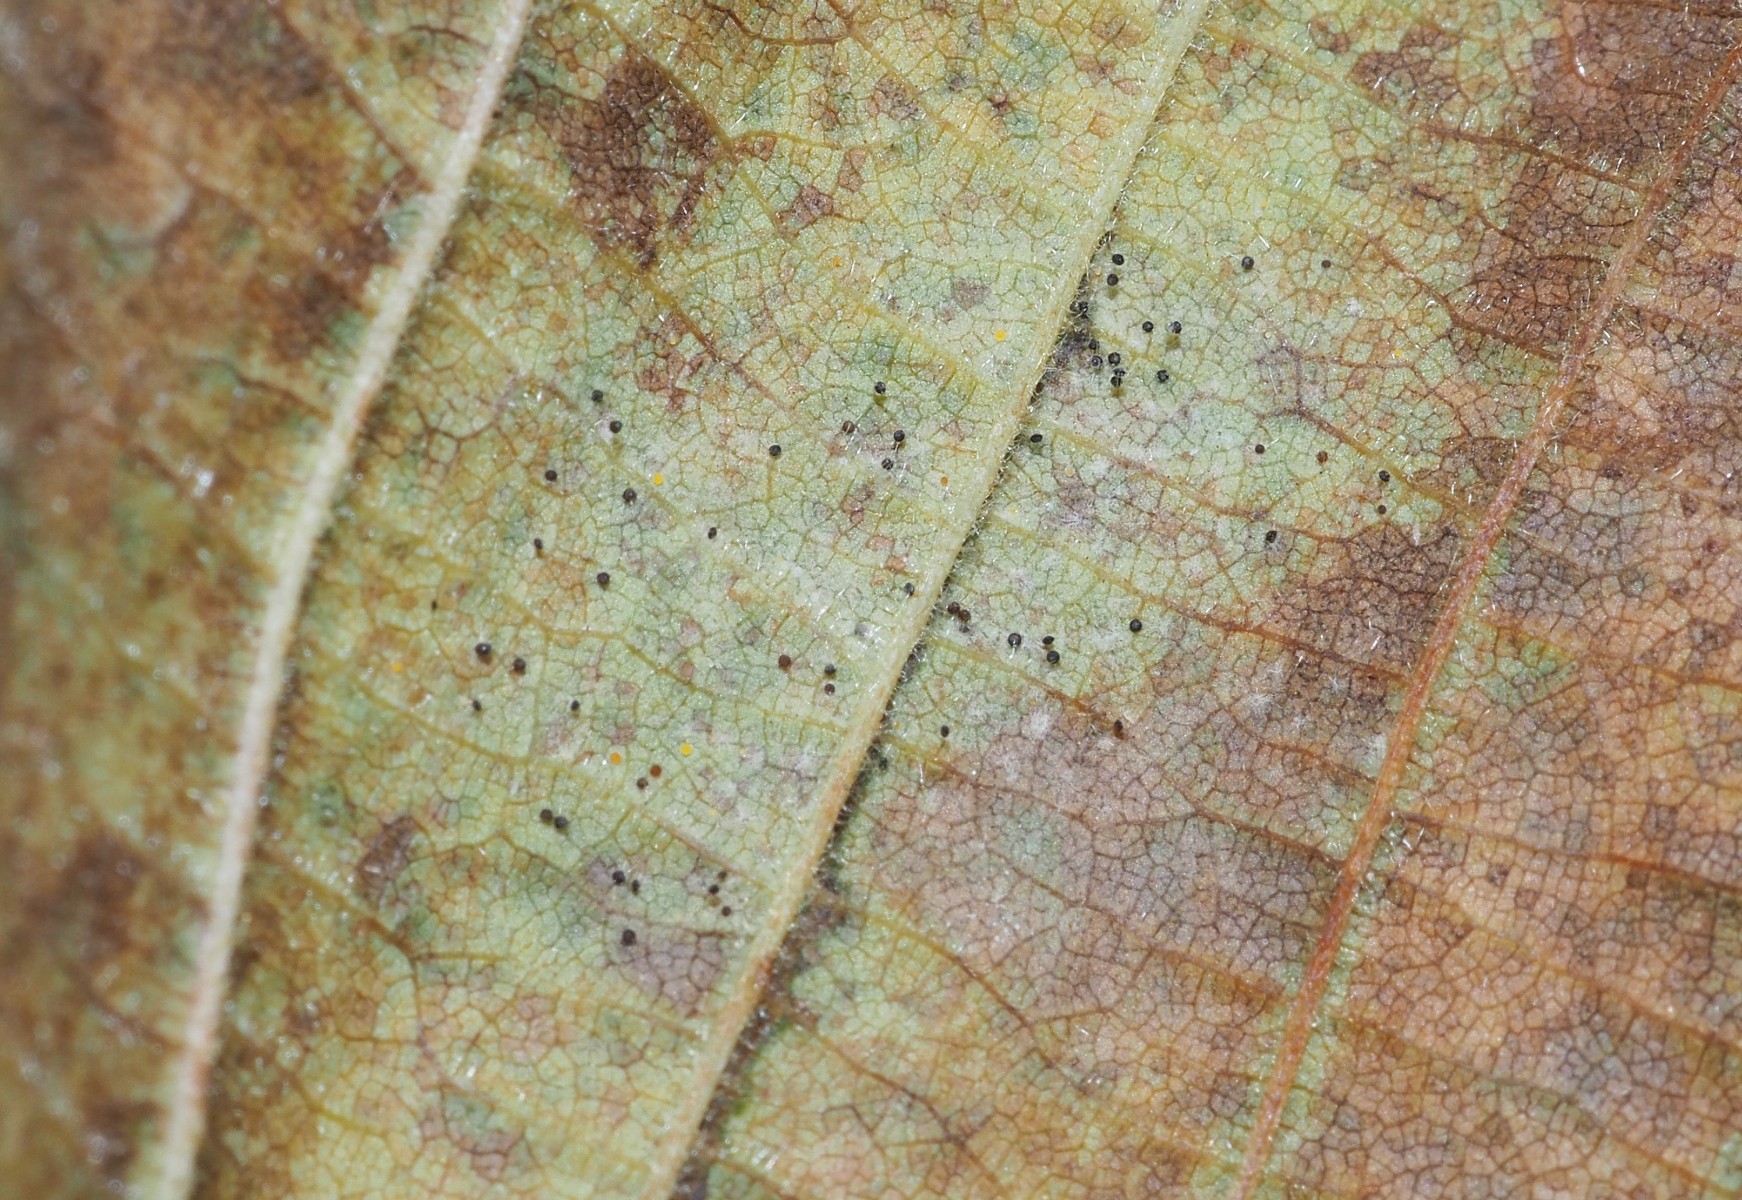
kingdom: Fungi
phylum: Ascomycota
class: Leotiomycetes
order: Helotiales
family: Erysiphaceae
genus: Phyllactinia
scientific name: Phyllactinia guttata
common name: hassel-meldug
